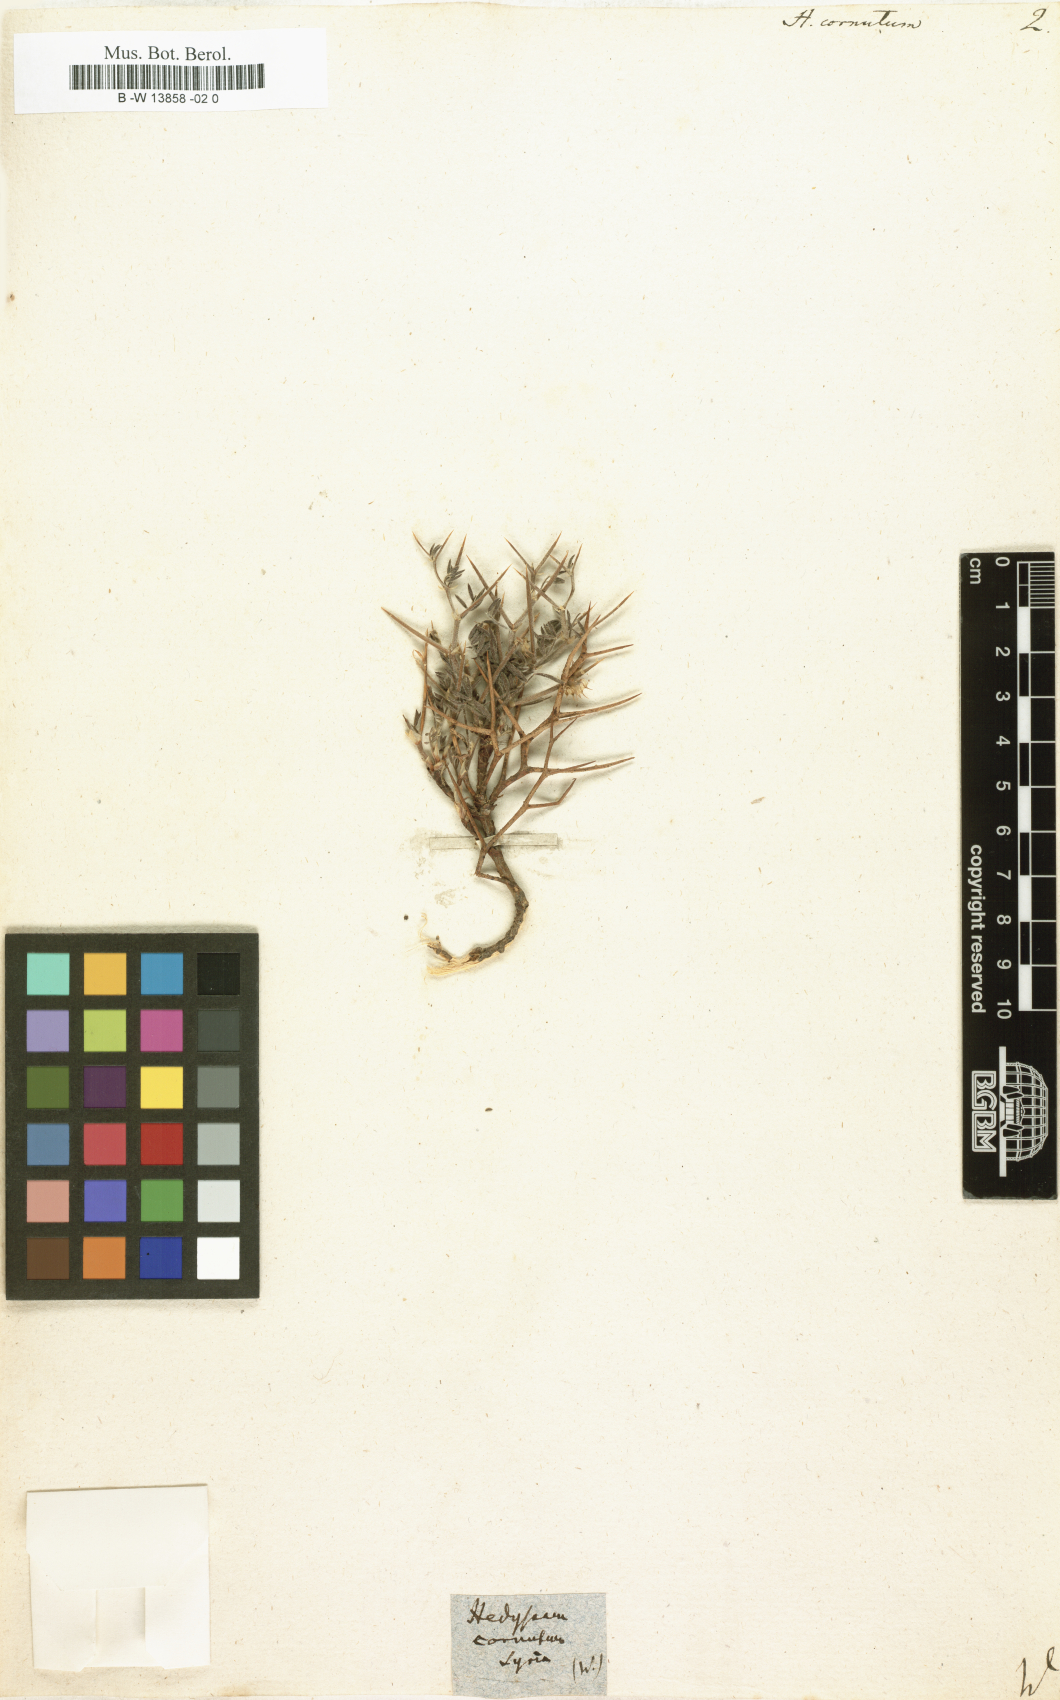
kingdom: Plantae
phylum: Tracheophyta
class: Magnoliopsida
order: Fabales
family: Fabaceae
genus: Onobrychis
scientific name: Onobrychis cornuta
